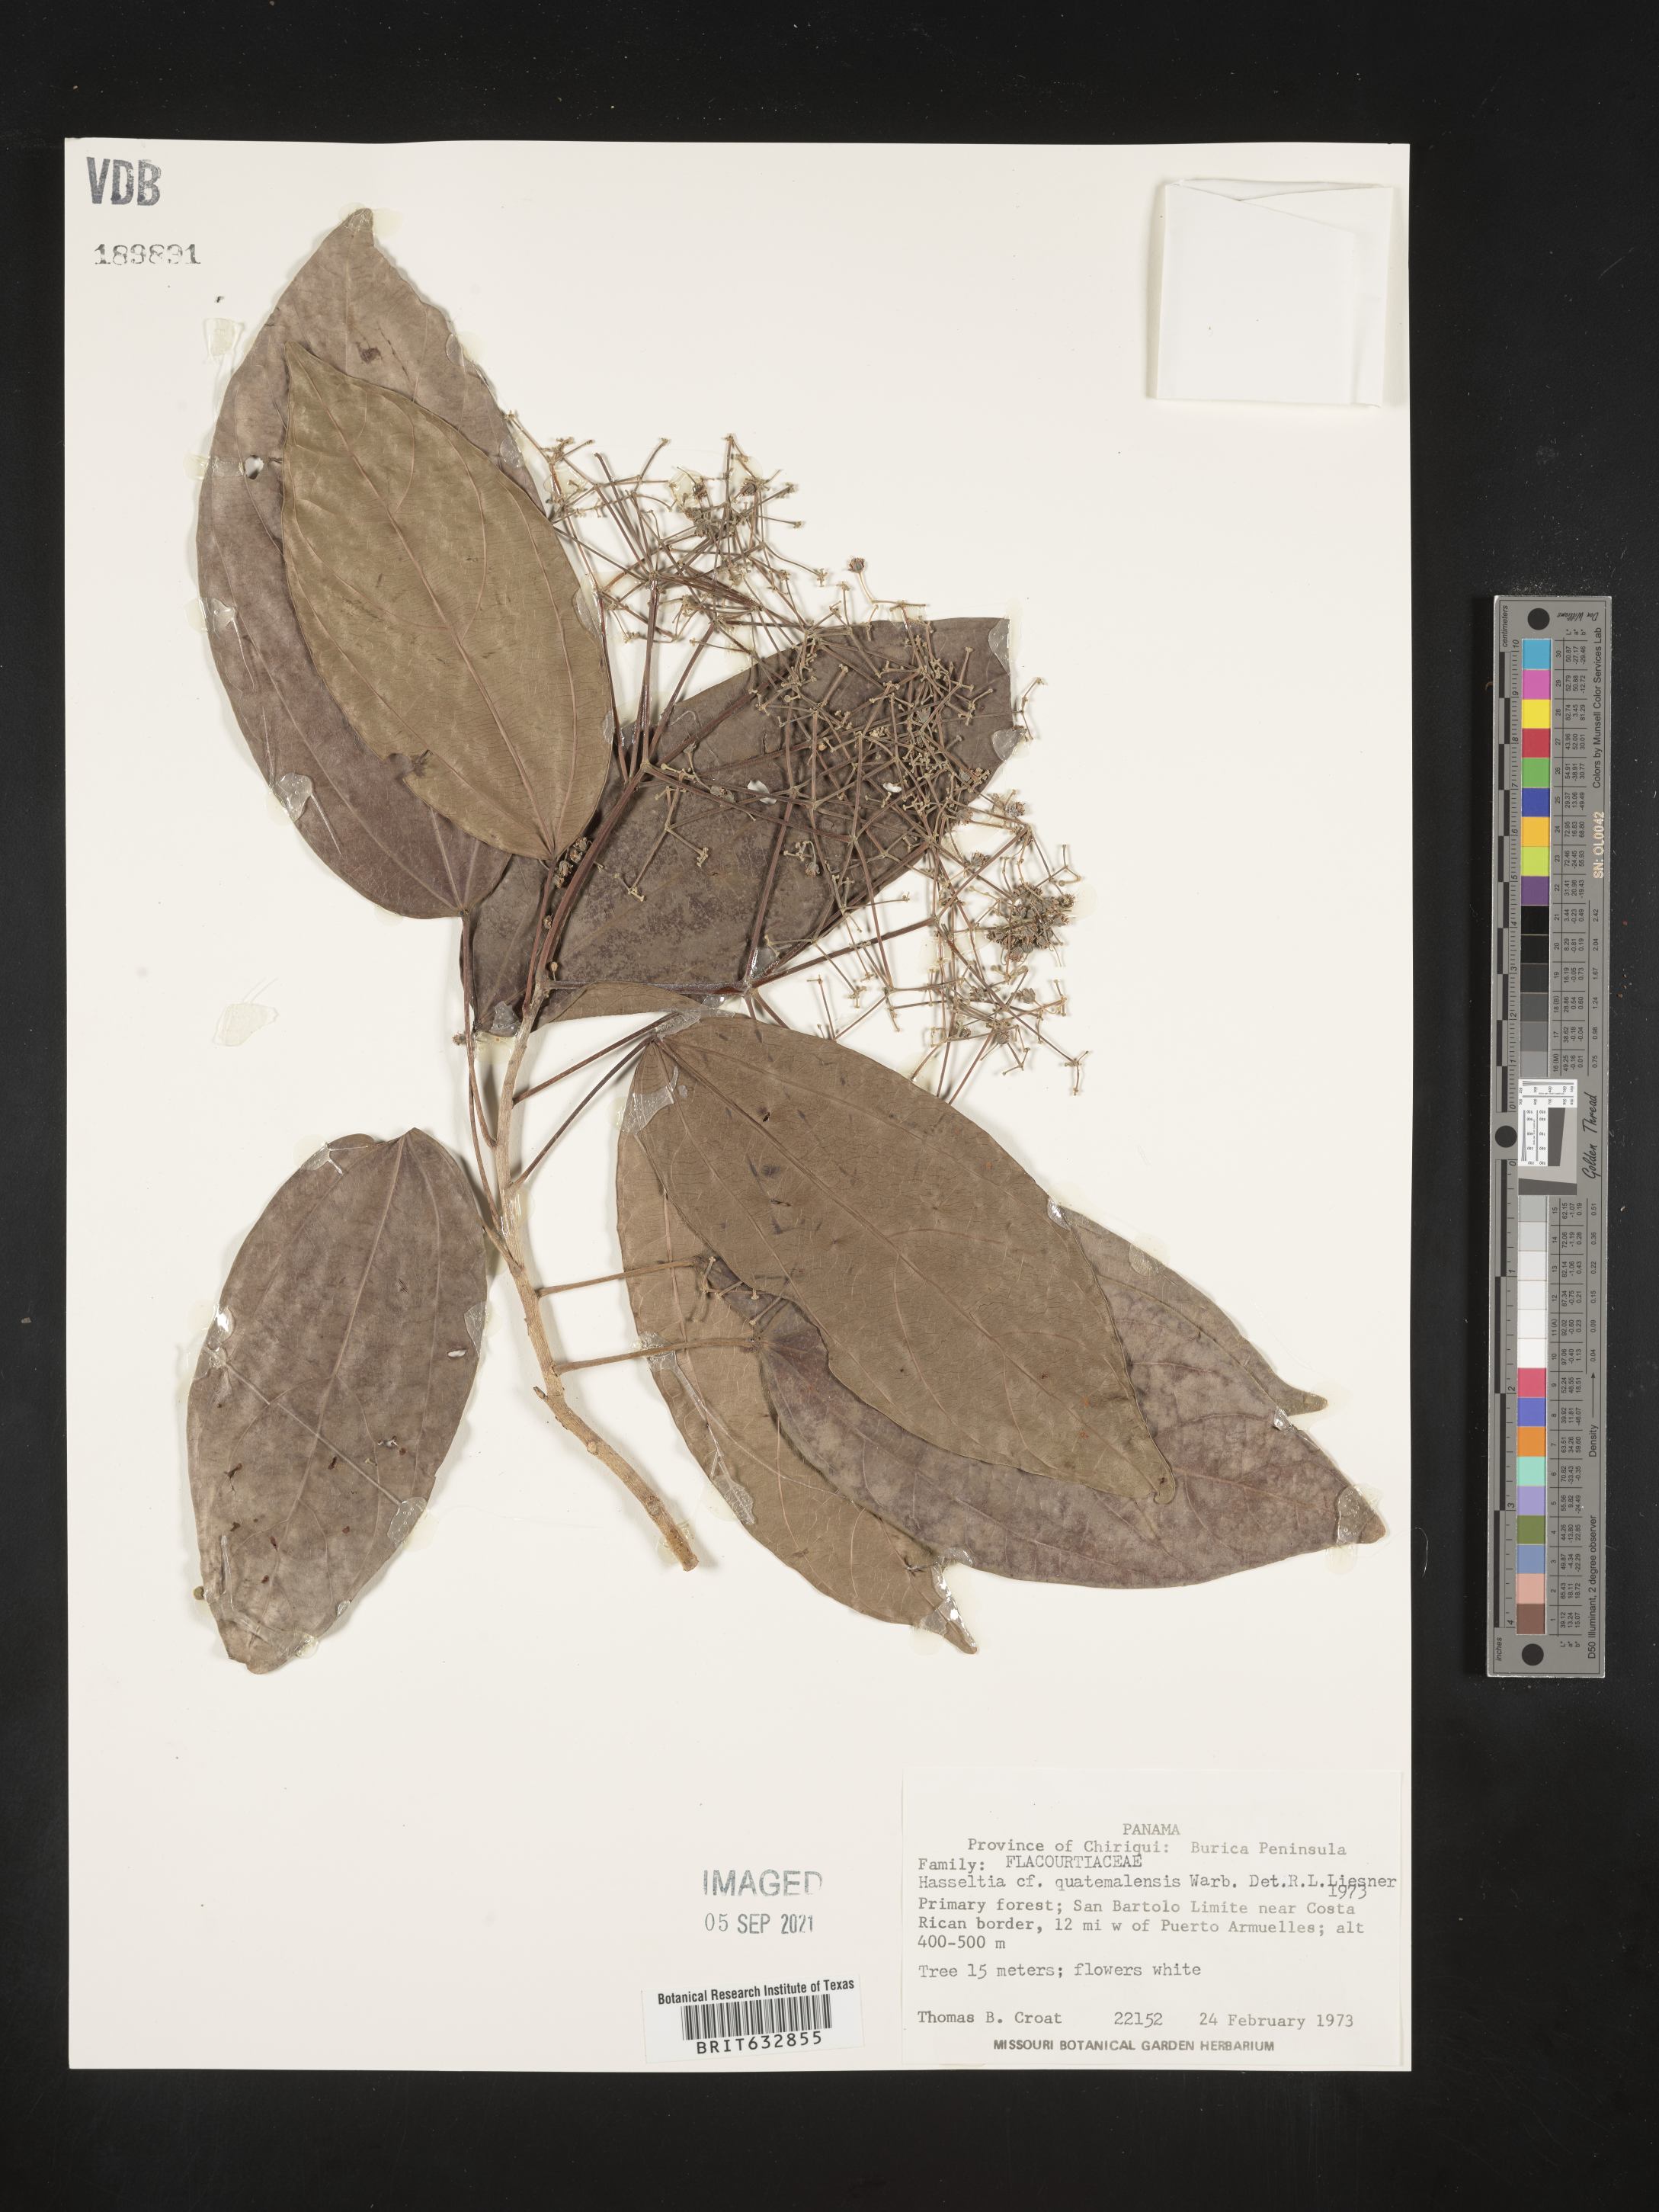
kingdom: Plantae
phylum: Tracheophyta
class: Magnoliopsida
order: Malpighiales
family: Salicaceae
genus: Hasseltia
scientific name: Hasseltia
